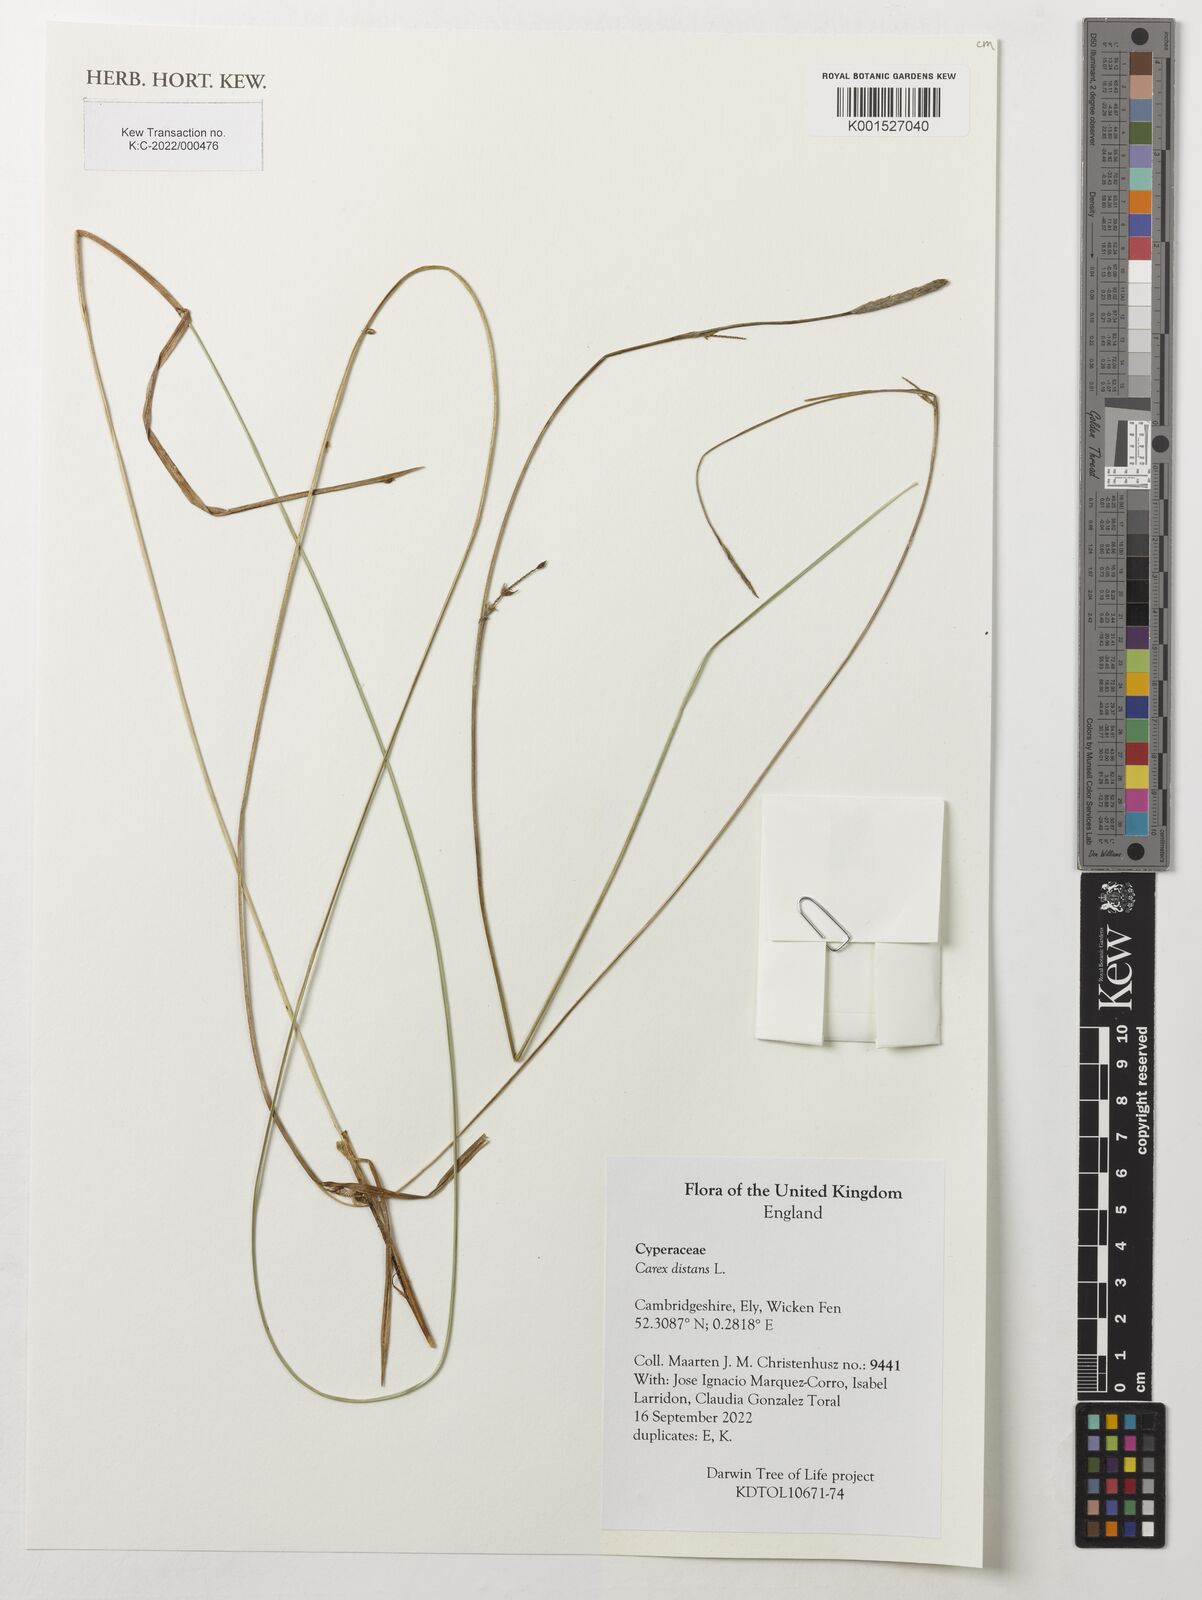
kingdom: Plantae
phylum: Tracheophyta
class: Liliopsida
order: Poales
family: Cyperaceae
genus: Carex
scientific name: Carex distans
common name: Distant sedge
